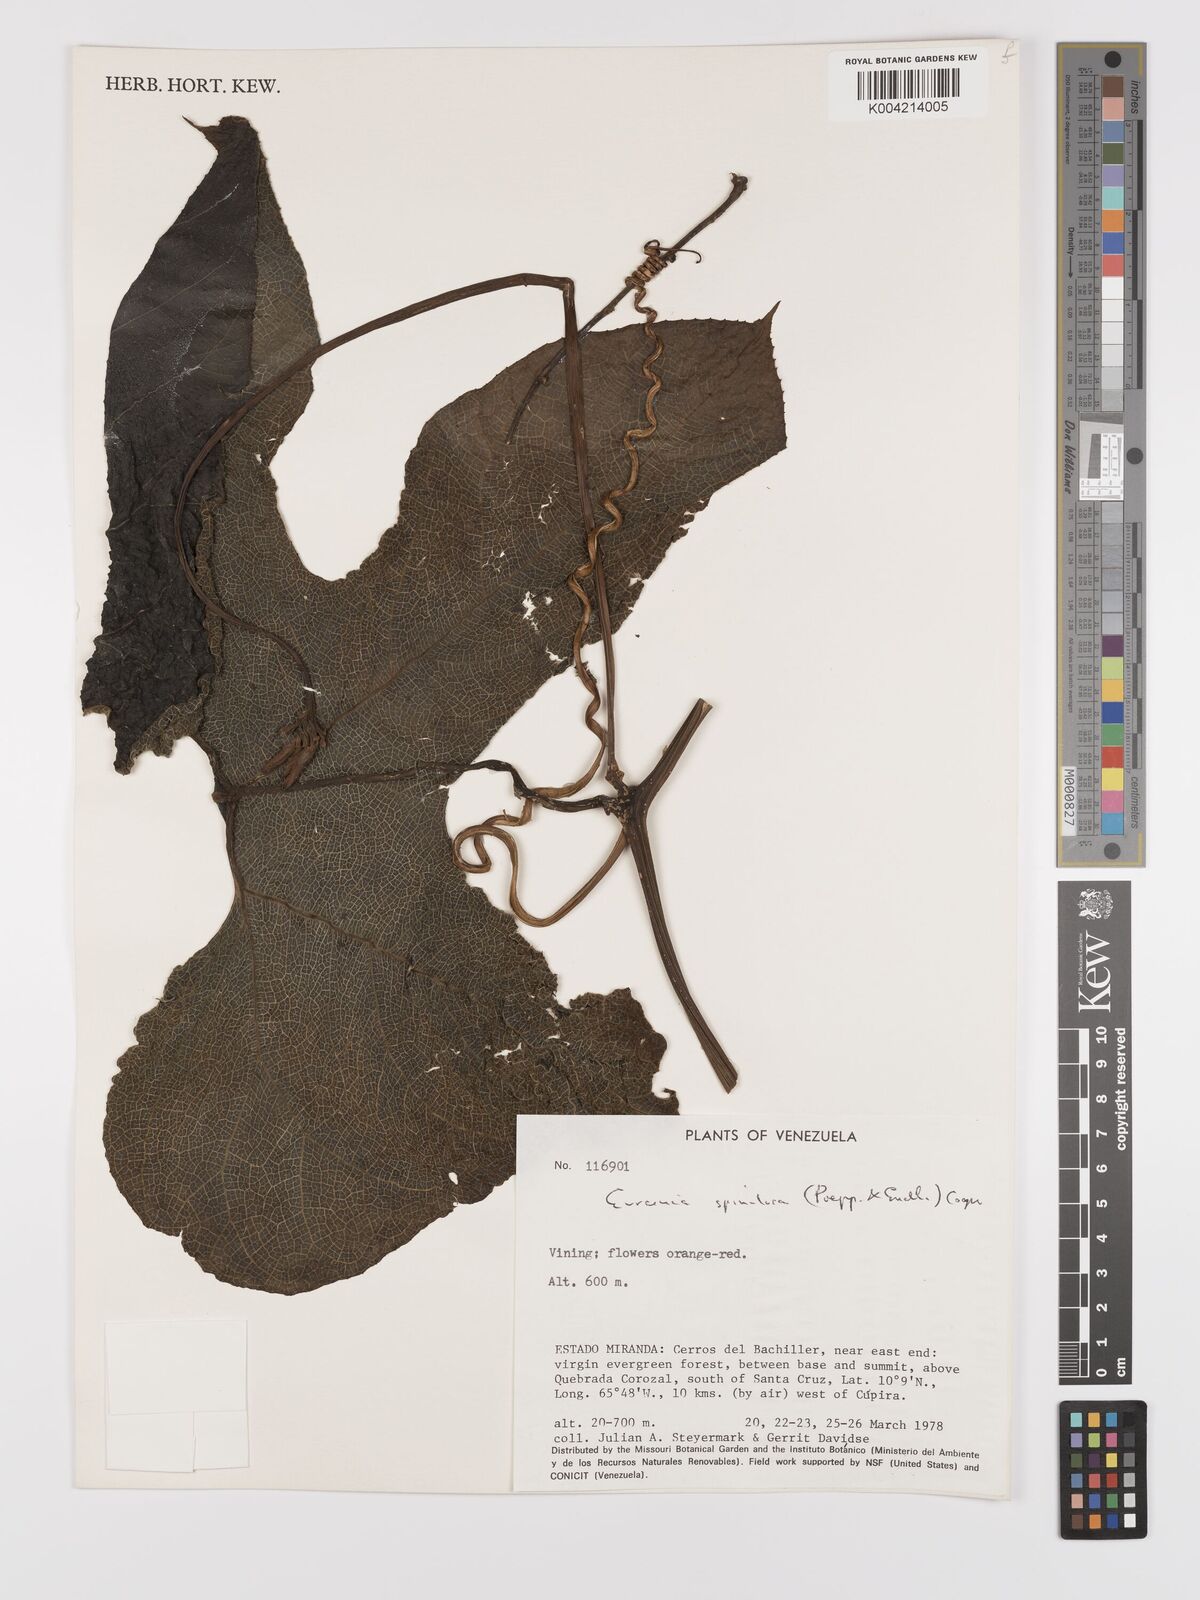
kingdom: Plantae
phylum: Tracheophyta
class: Magnoliopsida
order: Cucurbitales
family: Cucurbitaceae
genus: Gurania
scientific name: Gurania lobata
